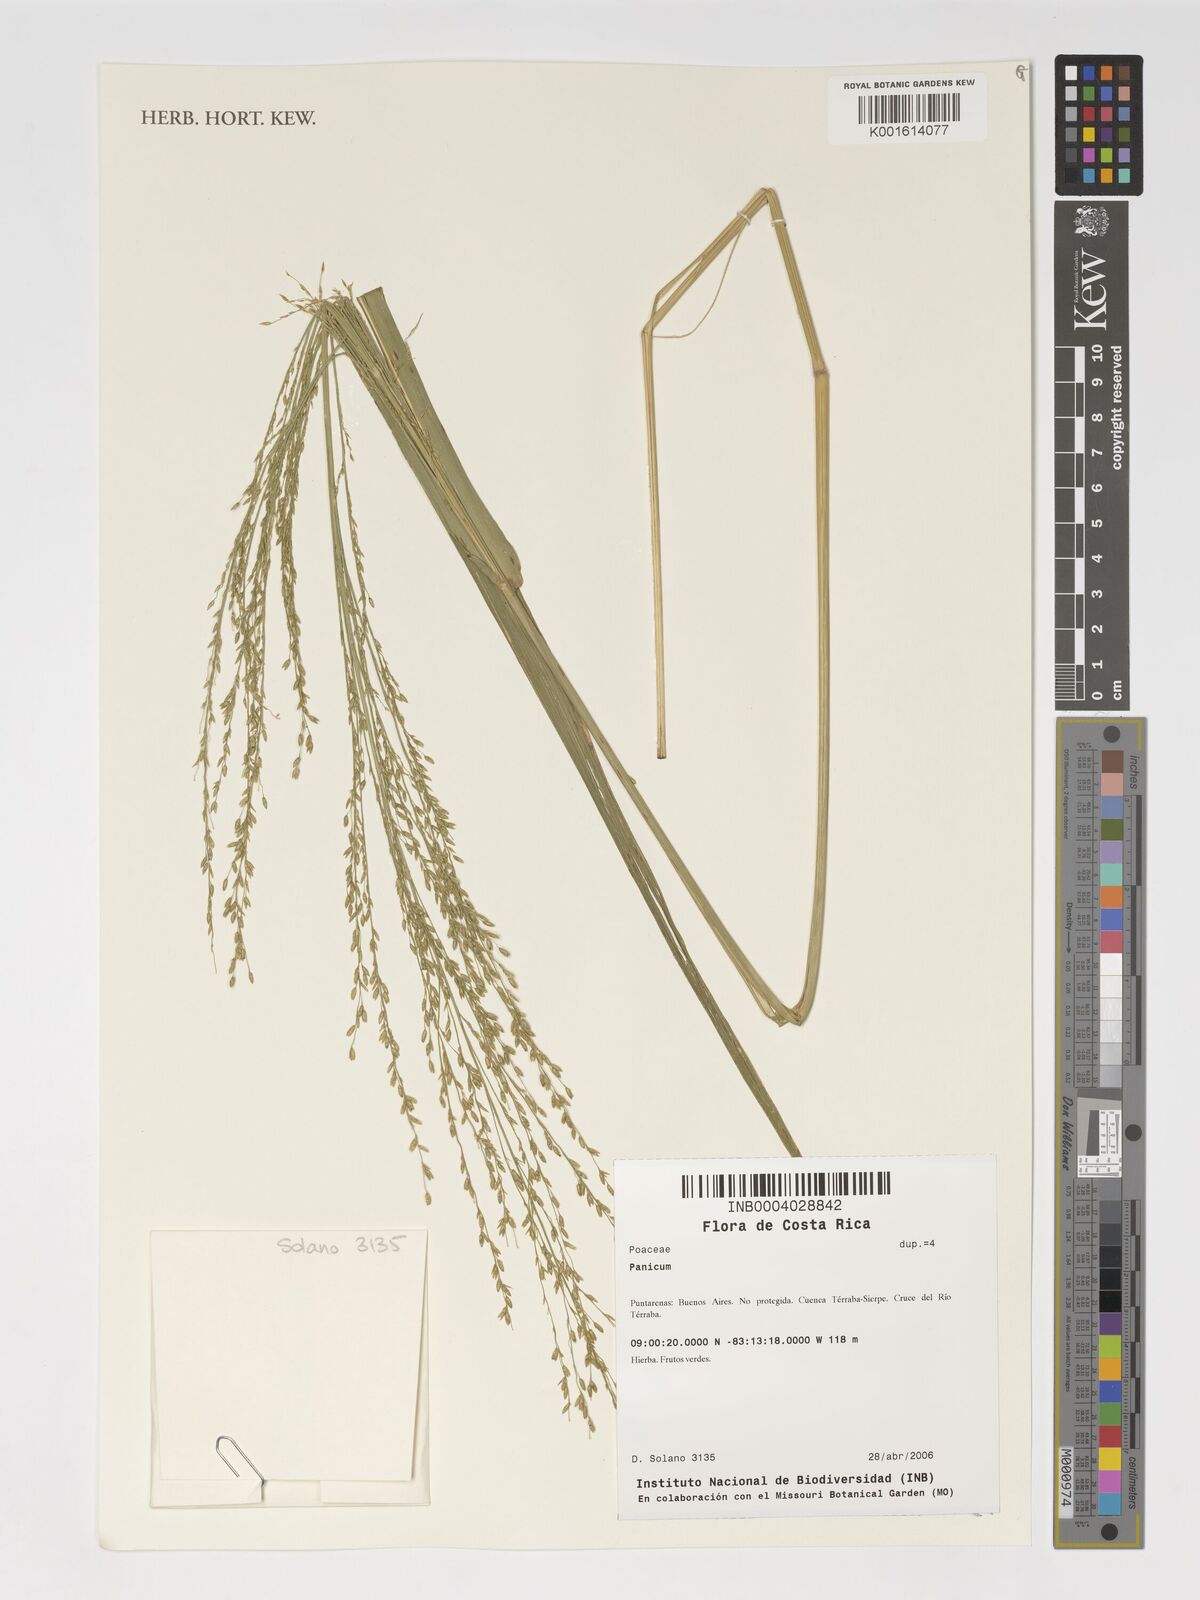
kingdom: Plantae
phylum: Tracheophyta
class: Liliopsida
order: Poales
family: Poaceae
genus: Panicum
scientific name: Panicum
